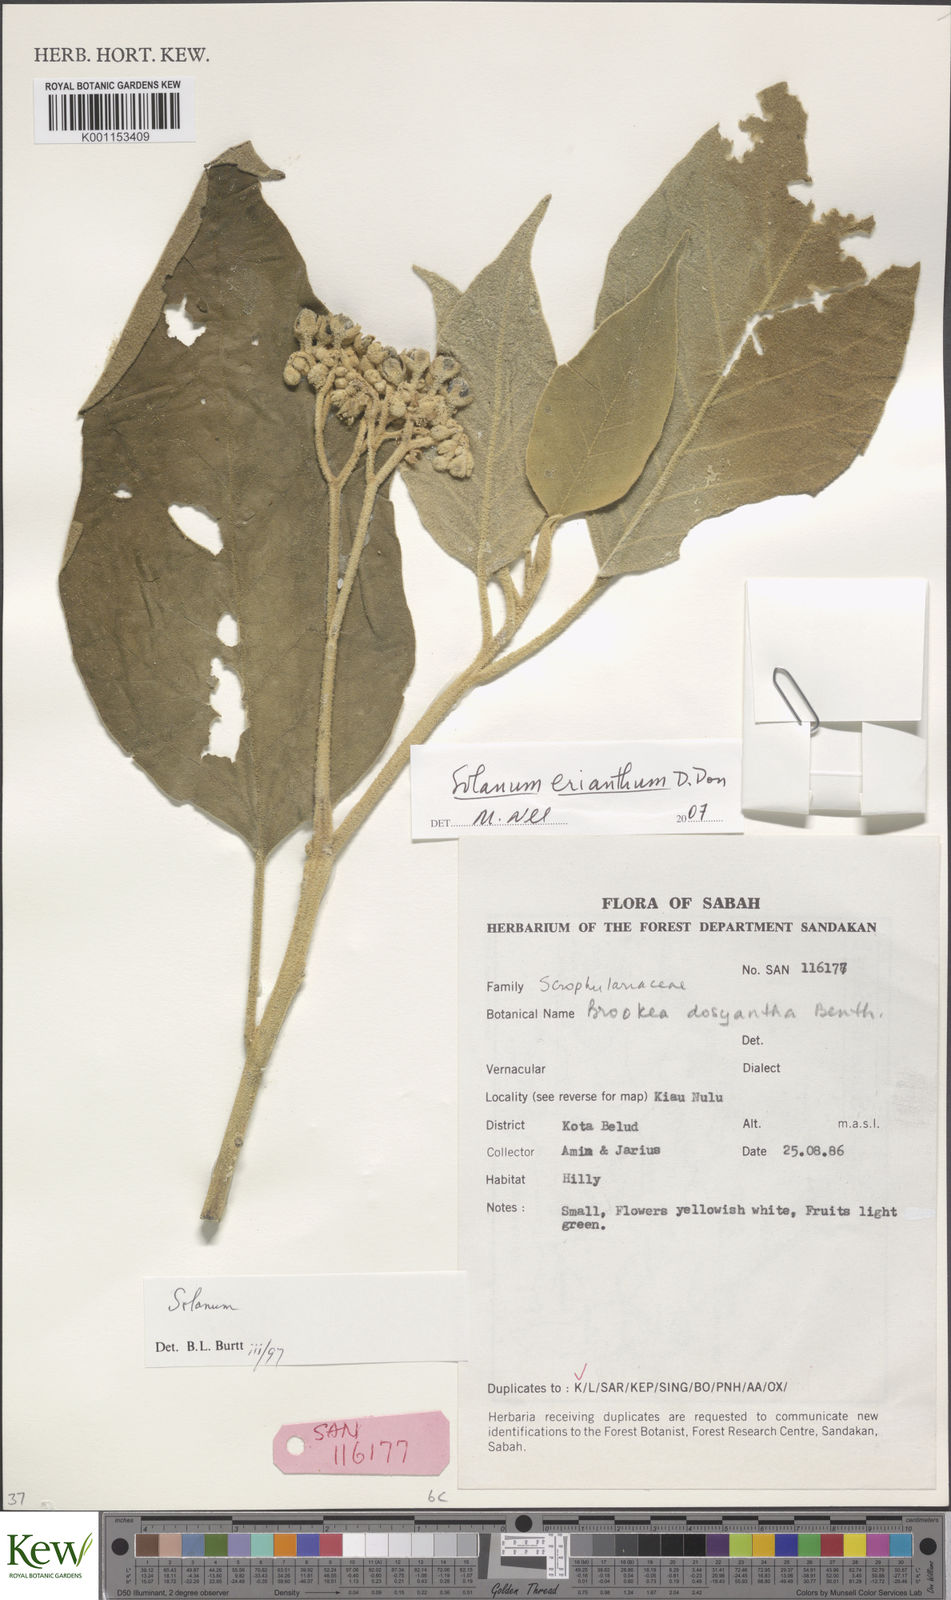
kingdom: Plantae
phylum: Tracheophyta
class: Magnoliopsida
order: Solanales
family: Solanaceae
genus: Solanum
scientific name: Solanum erianthum
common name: Tobacco-tree
